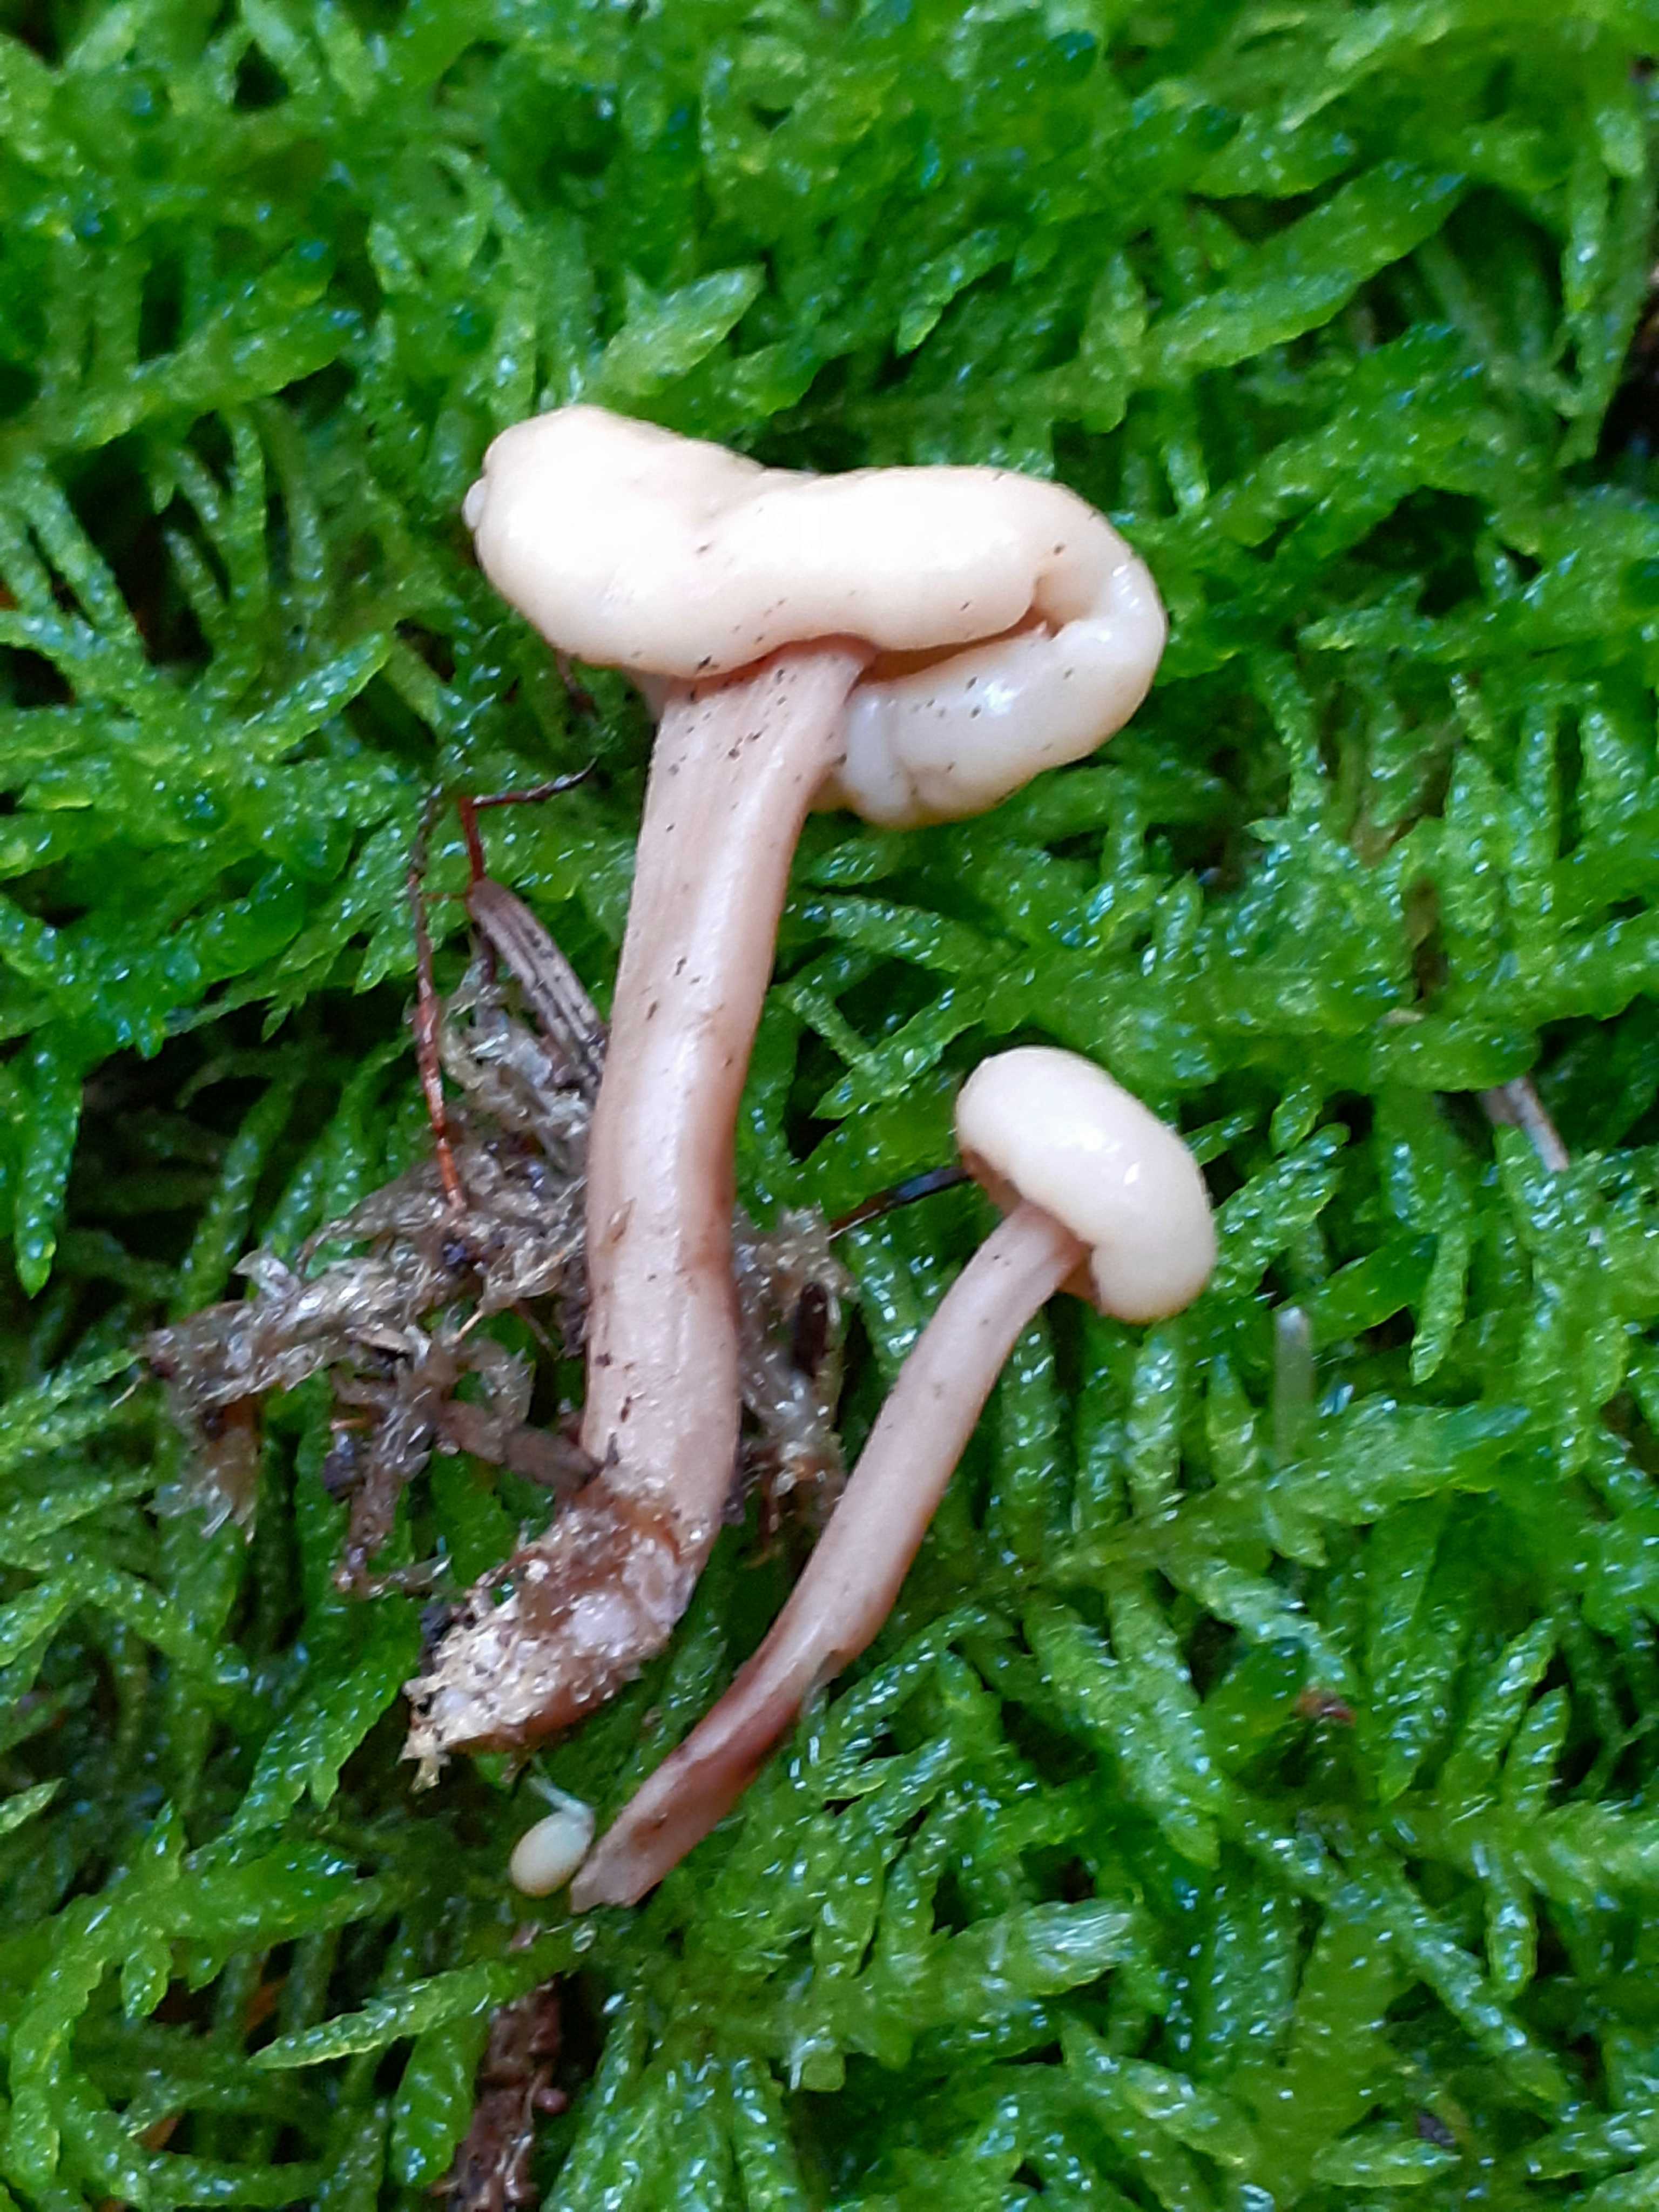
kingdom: Fungi
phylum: Ascomycota
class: Leotiomycetes
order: Rhytismatales
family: Cudoniaceae
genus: Cudonia
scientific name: Cudonia confusa
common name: ensfarvet hjelmmorkel
